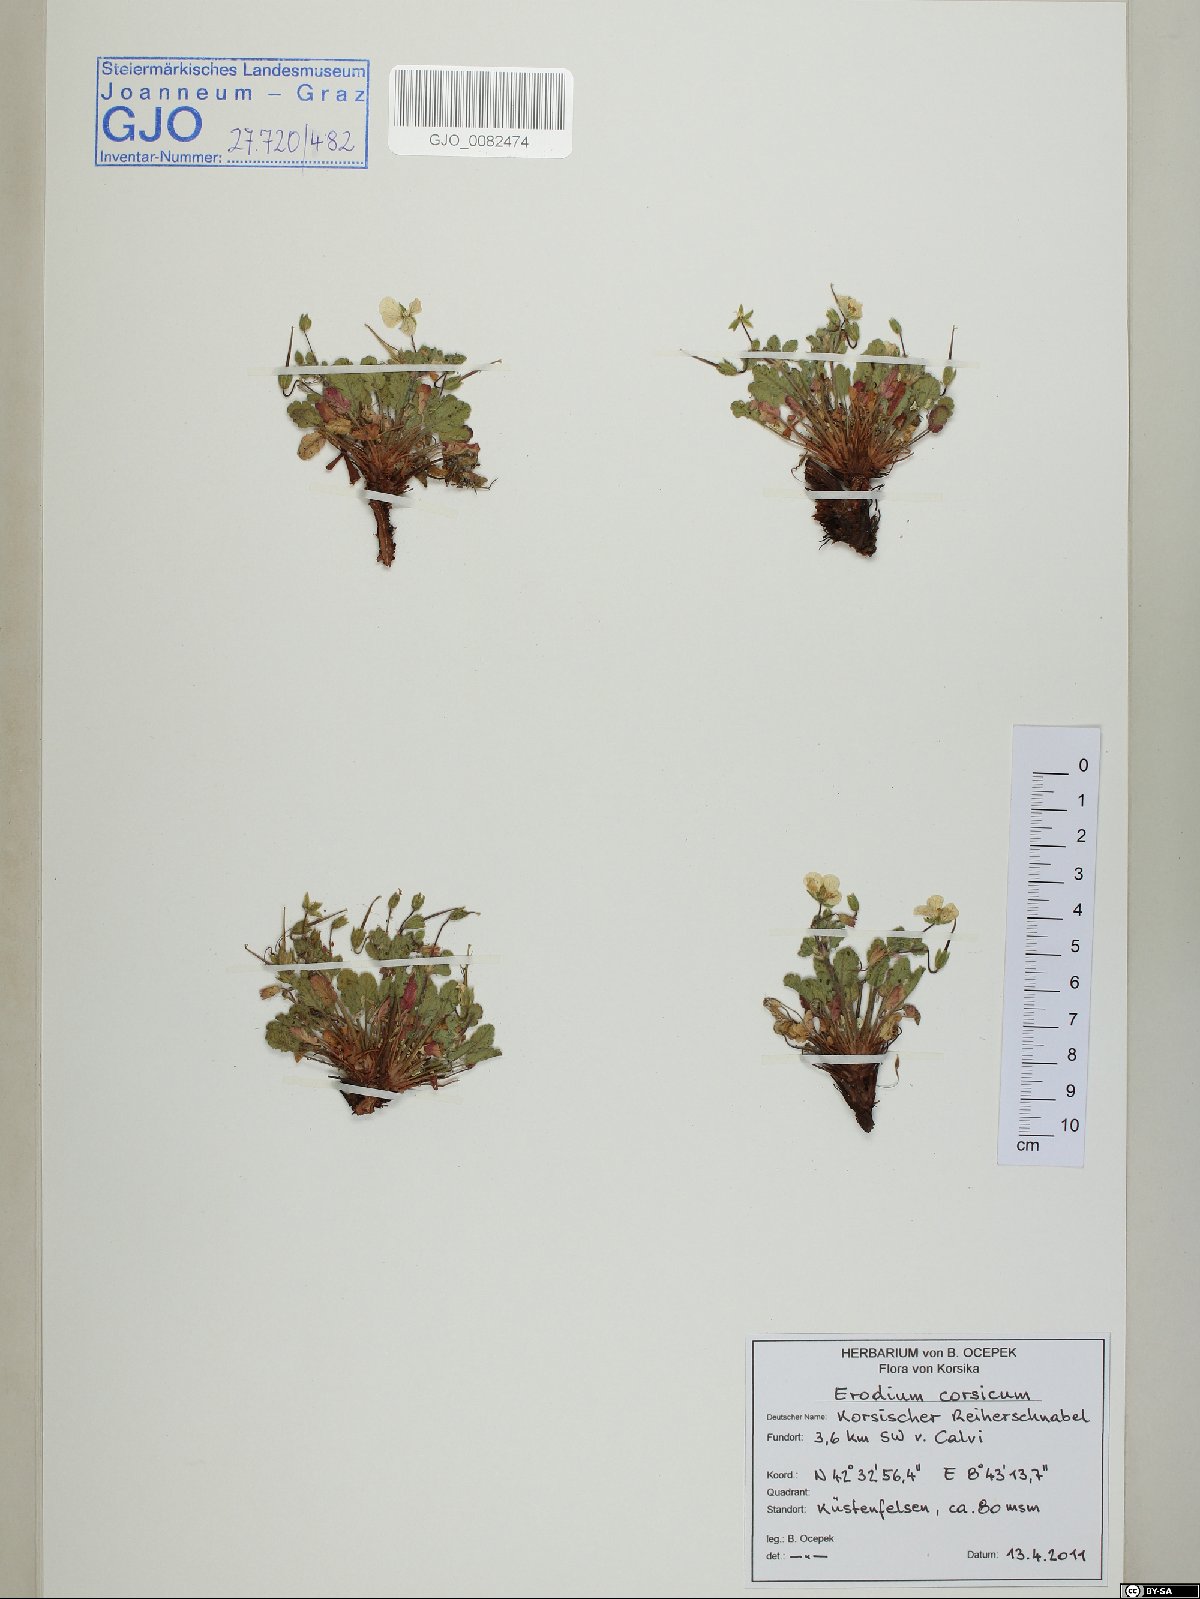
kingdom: Plantae
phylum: Tracheophyta
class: Magnoliopsida
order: Geraniales
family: Geraniaceae
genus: Erodium
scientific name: Erodium corsicum
